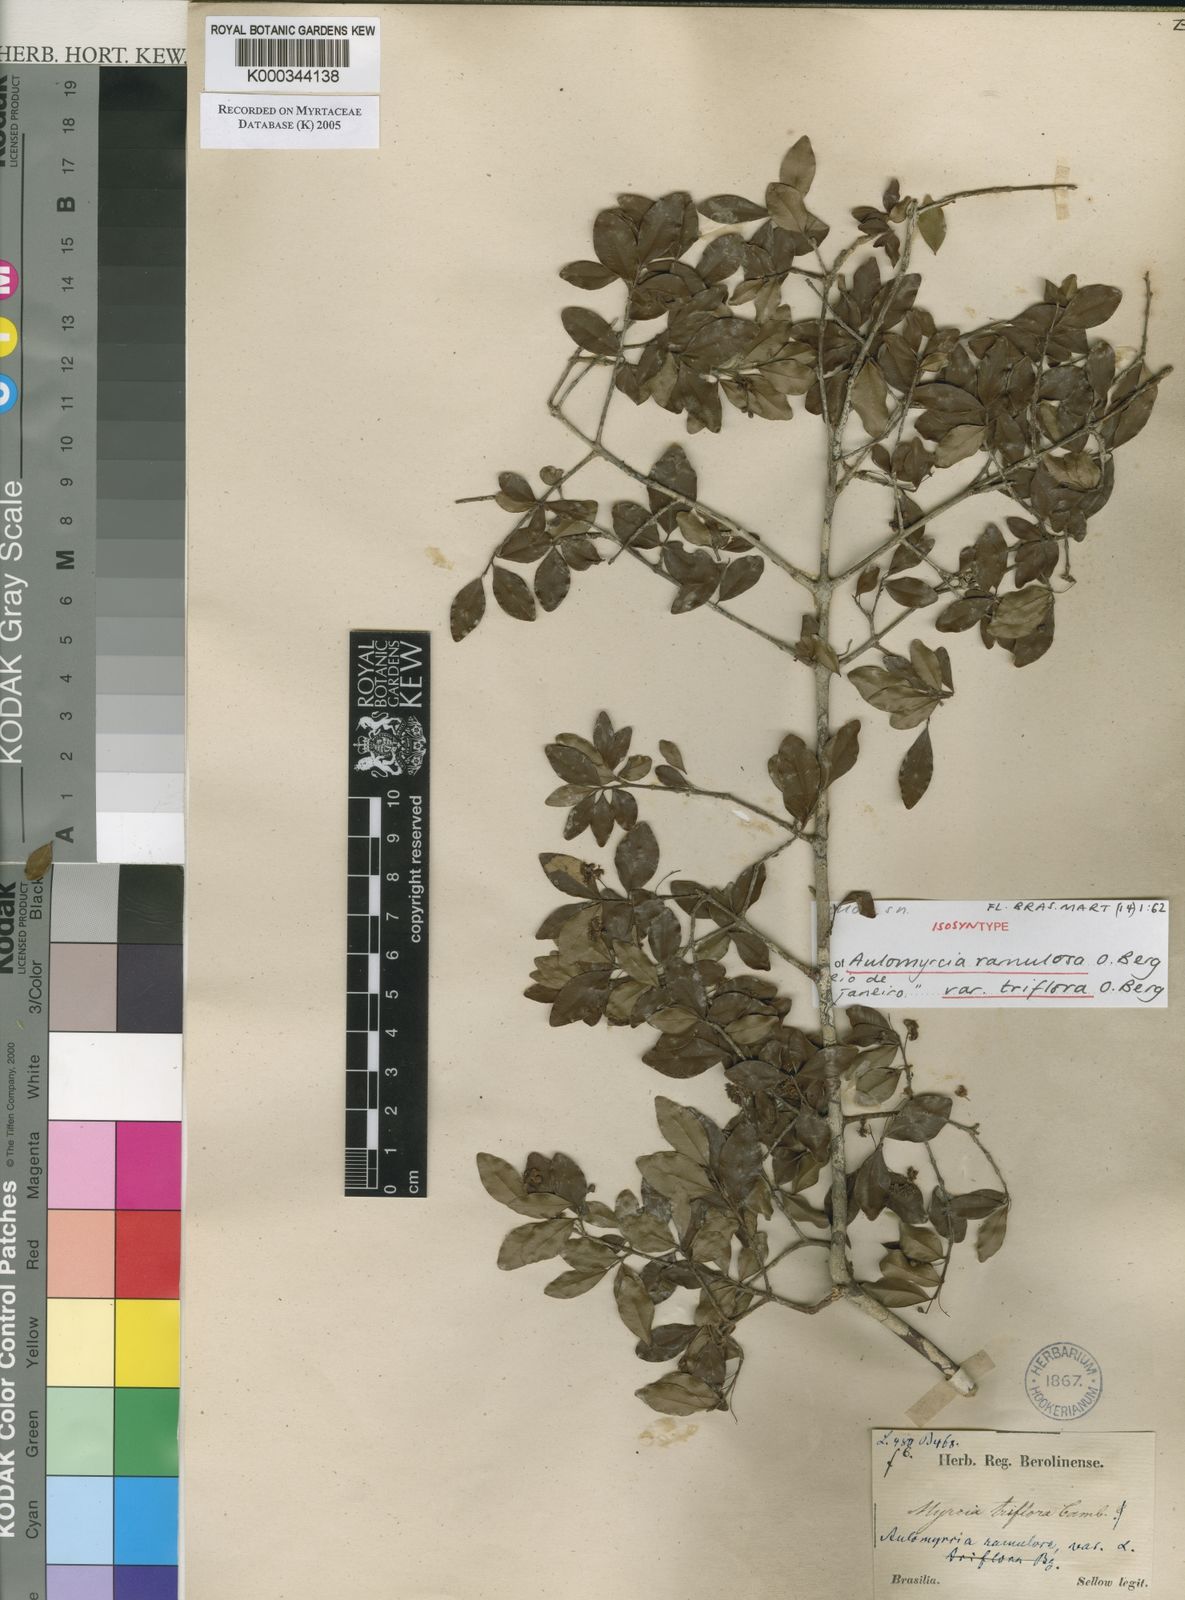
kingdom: Plantae
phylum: Tracheophyta
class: Magnoliopsida
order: Myrtales
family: Myrtaceae
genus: Myrcia
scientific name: Myrcia selloi
